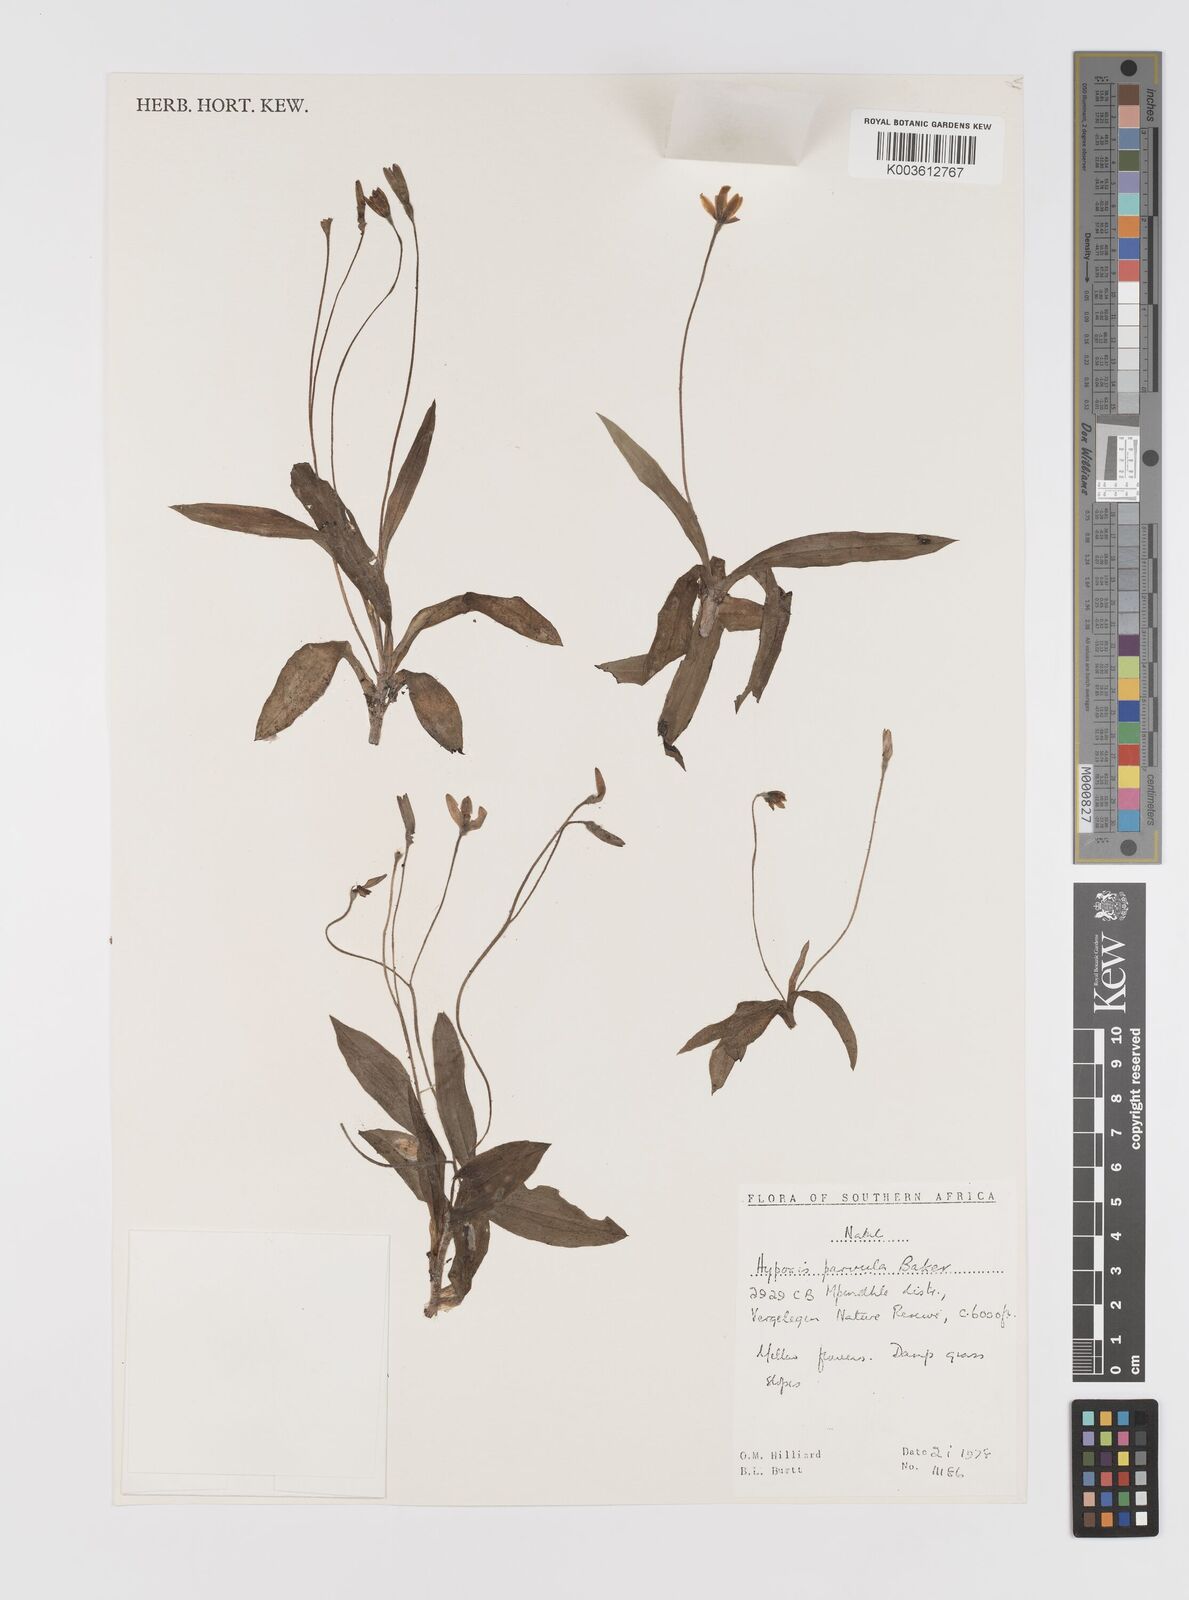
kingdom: Plantae
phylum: Tracheophyta
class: Liliopsida
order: Asparagales
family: Hypoxidaceae
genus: Hypoxis
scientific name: Hypoxis parvula
